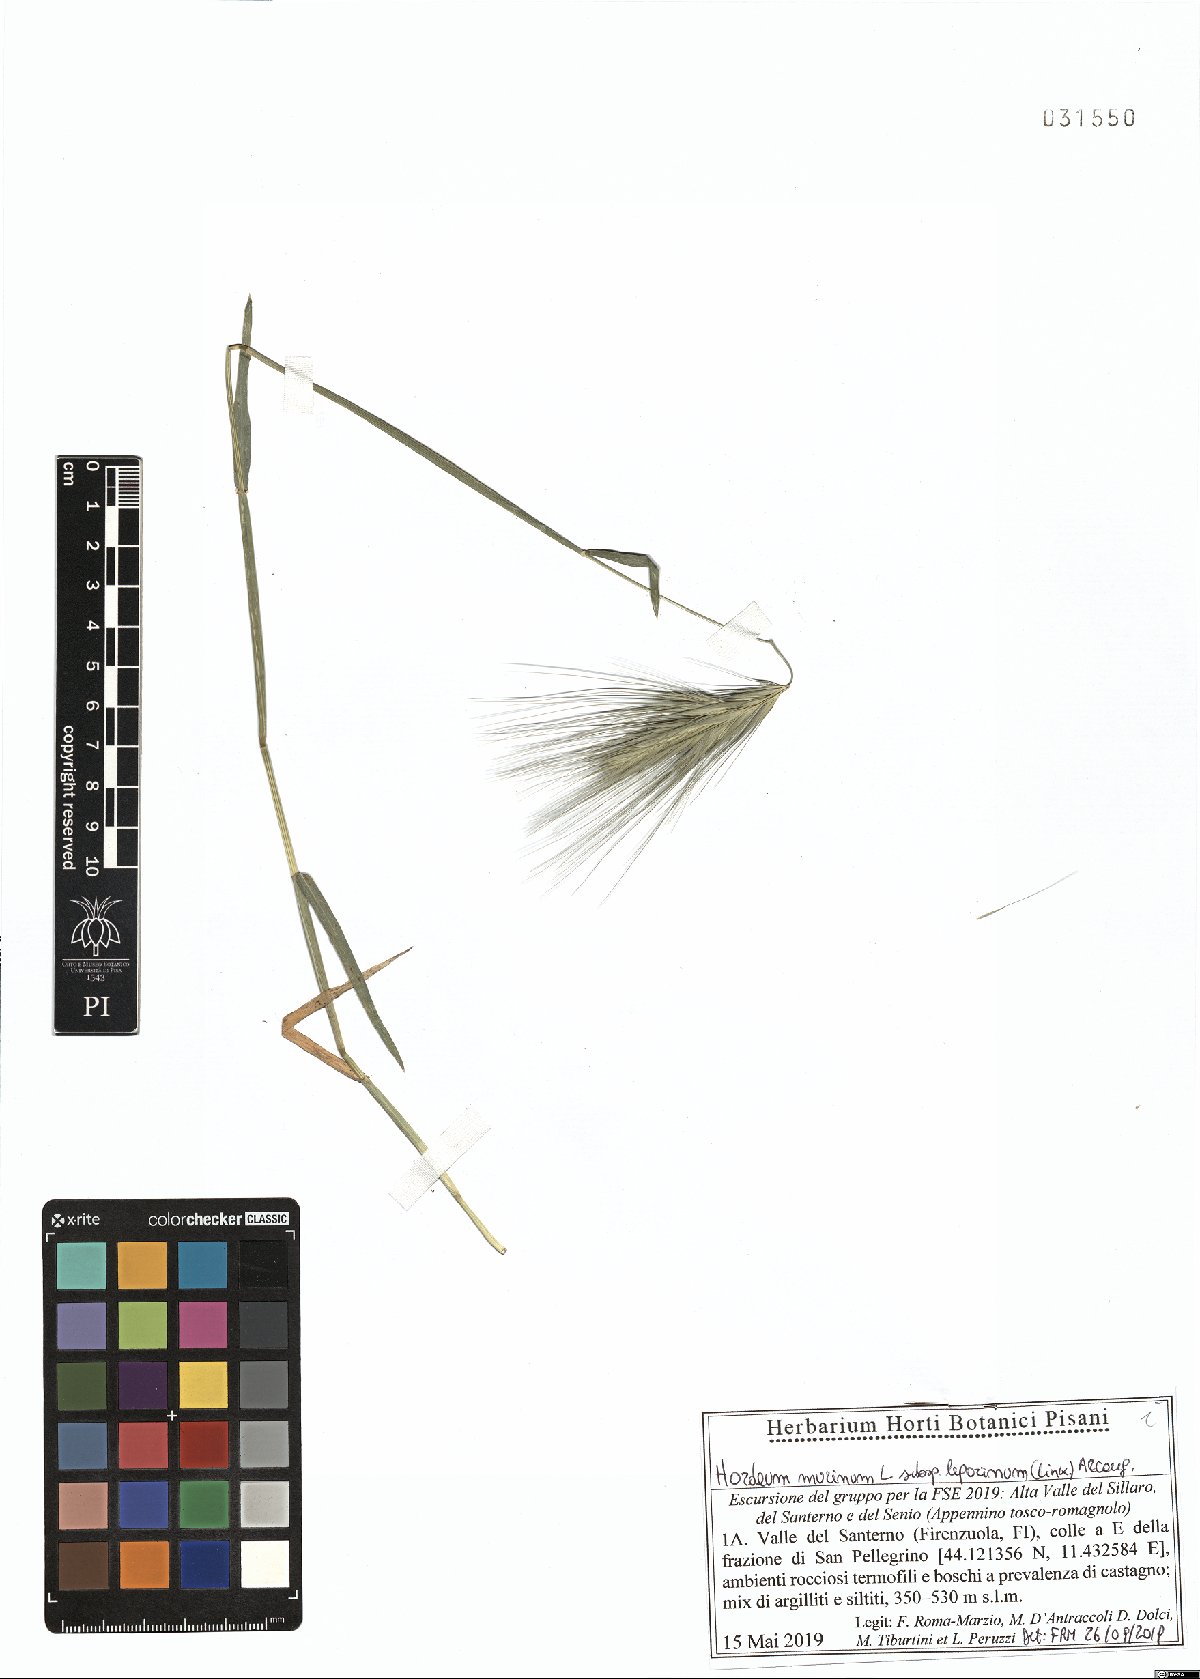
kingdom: Plantae
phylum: Tracheophyta
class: Liliopsida
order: Poales
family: Poaceae
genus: Hordeum
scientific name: Hordeum murinum
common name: Wall barley
